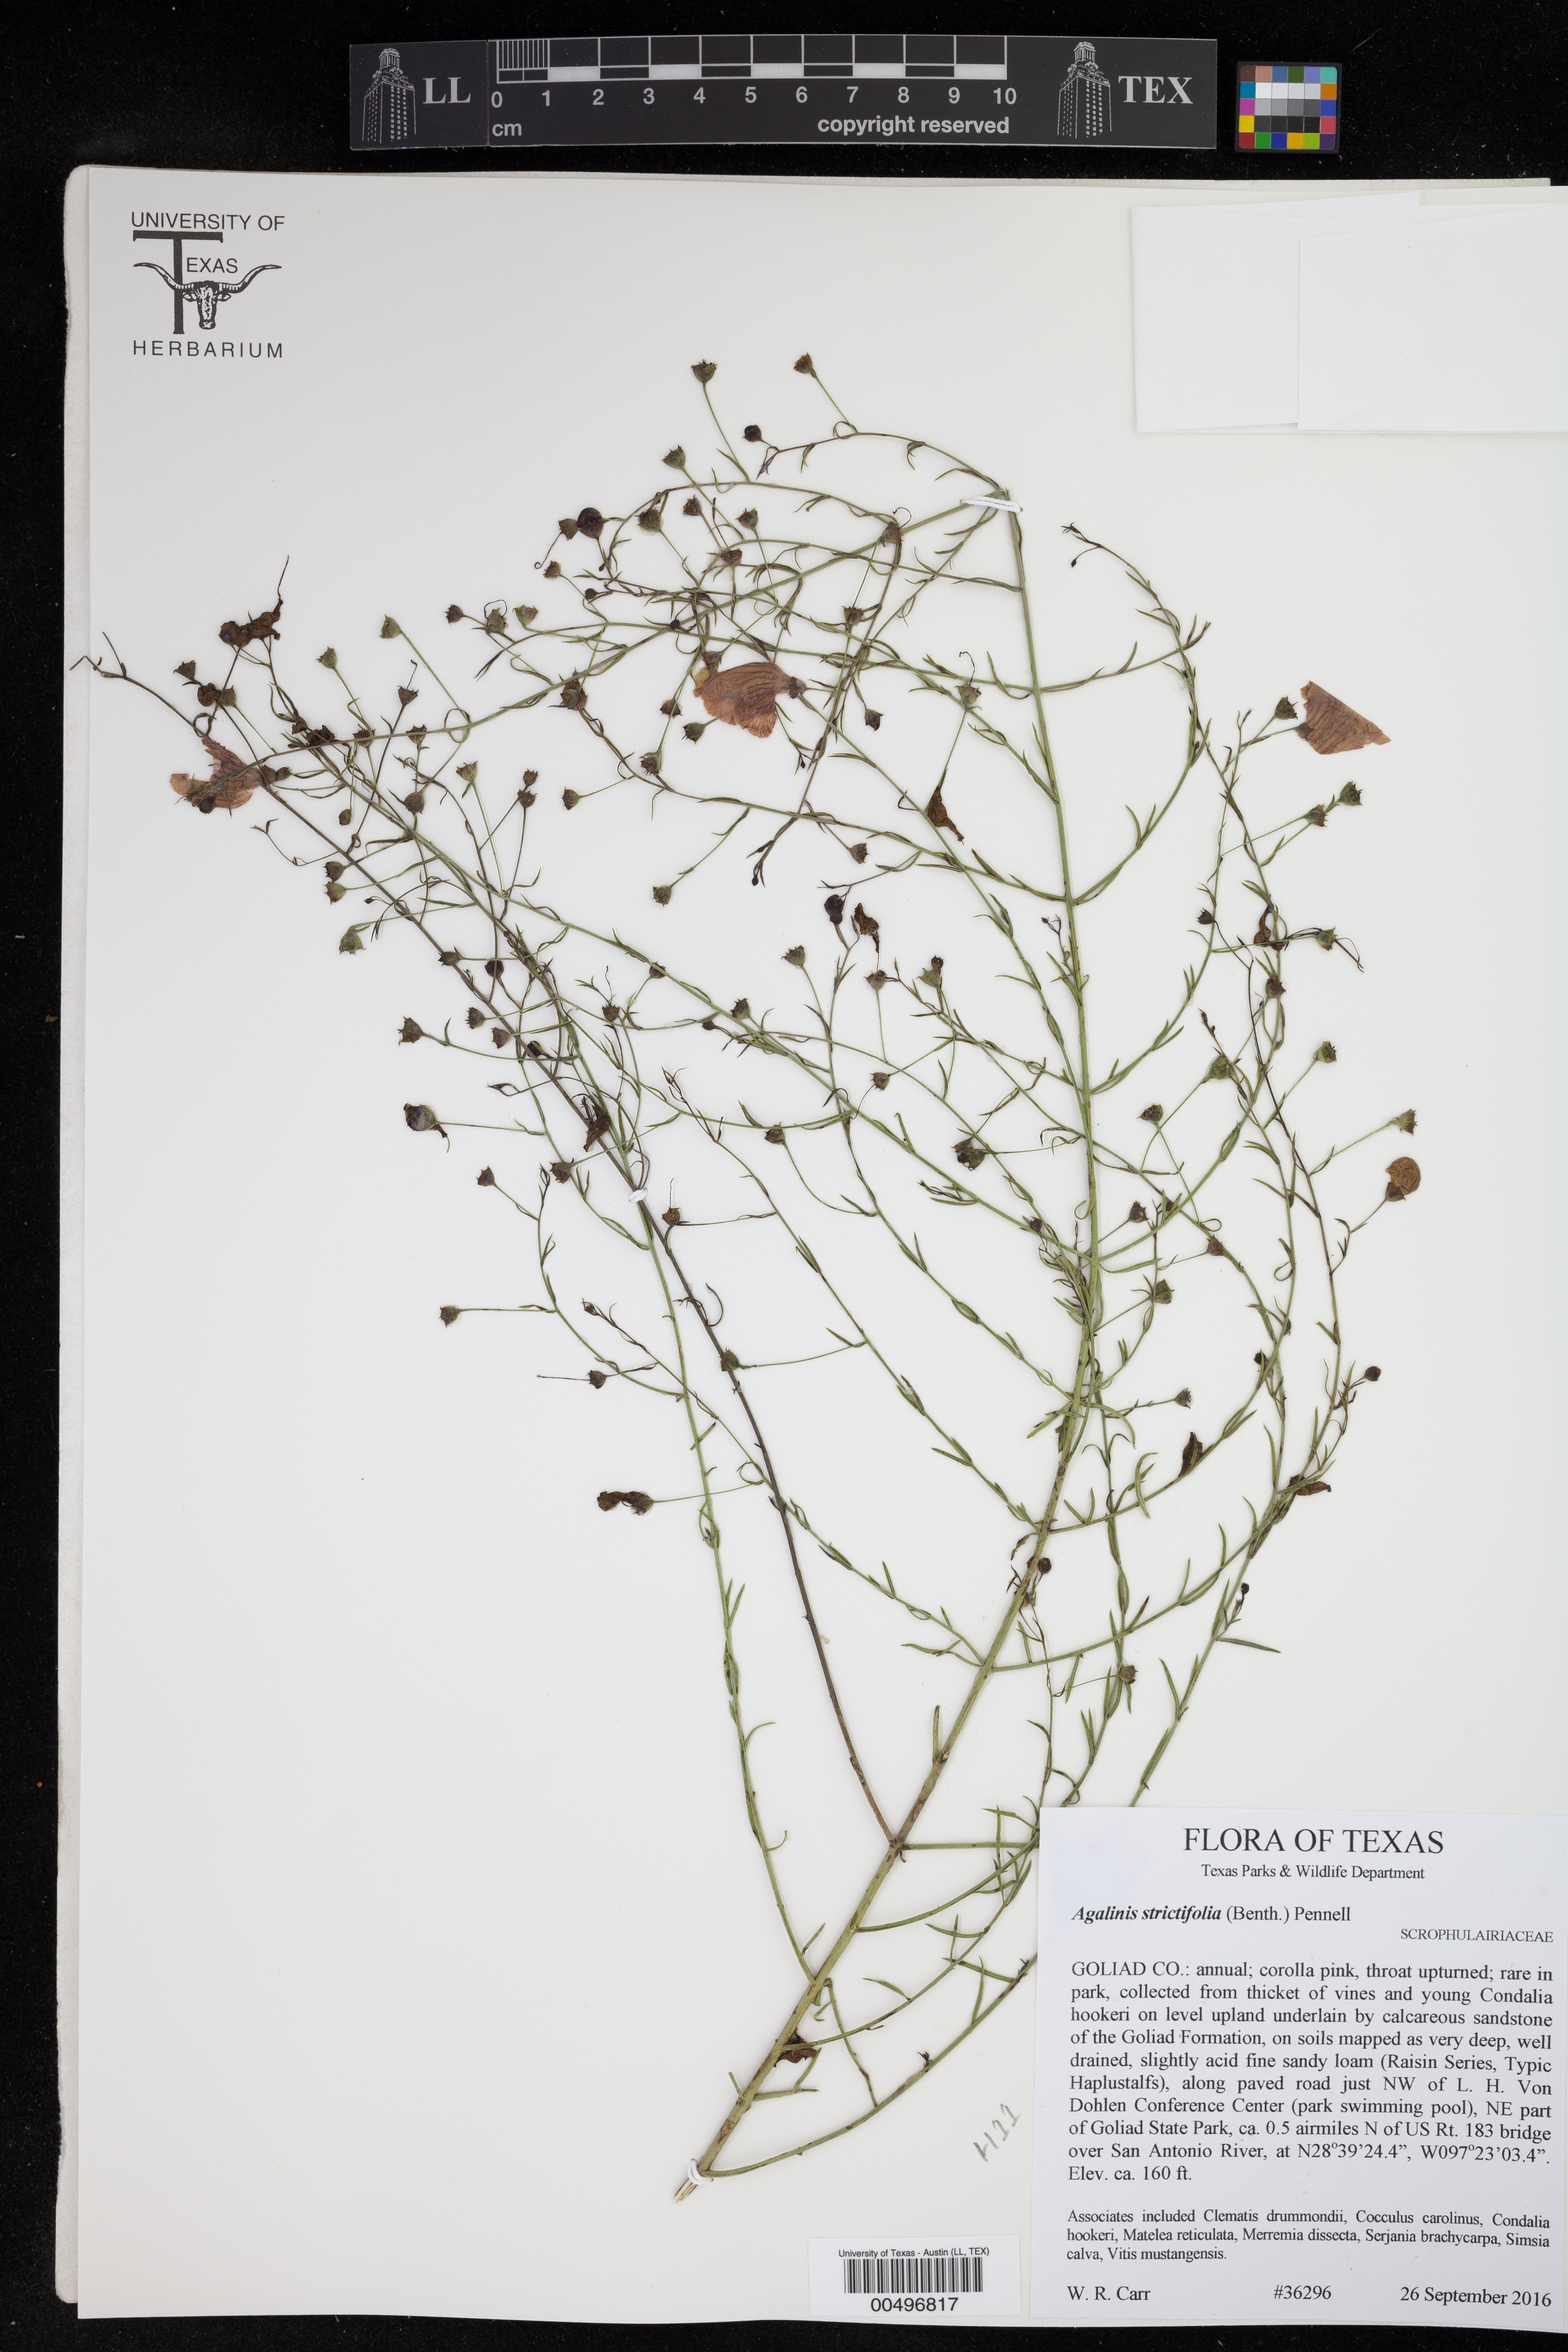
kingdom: Plantae
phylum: Tracheophyta
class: Magnoliopsida
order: Lamiales
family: Orobanchaceae
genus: Agalinis
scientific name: Agalinis strictifolia
